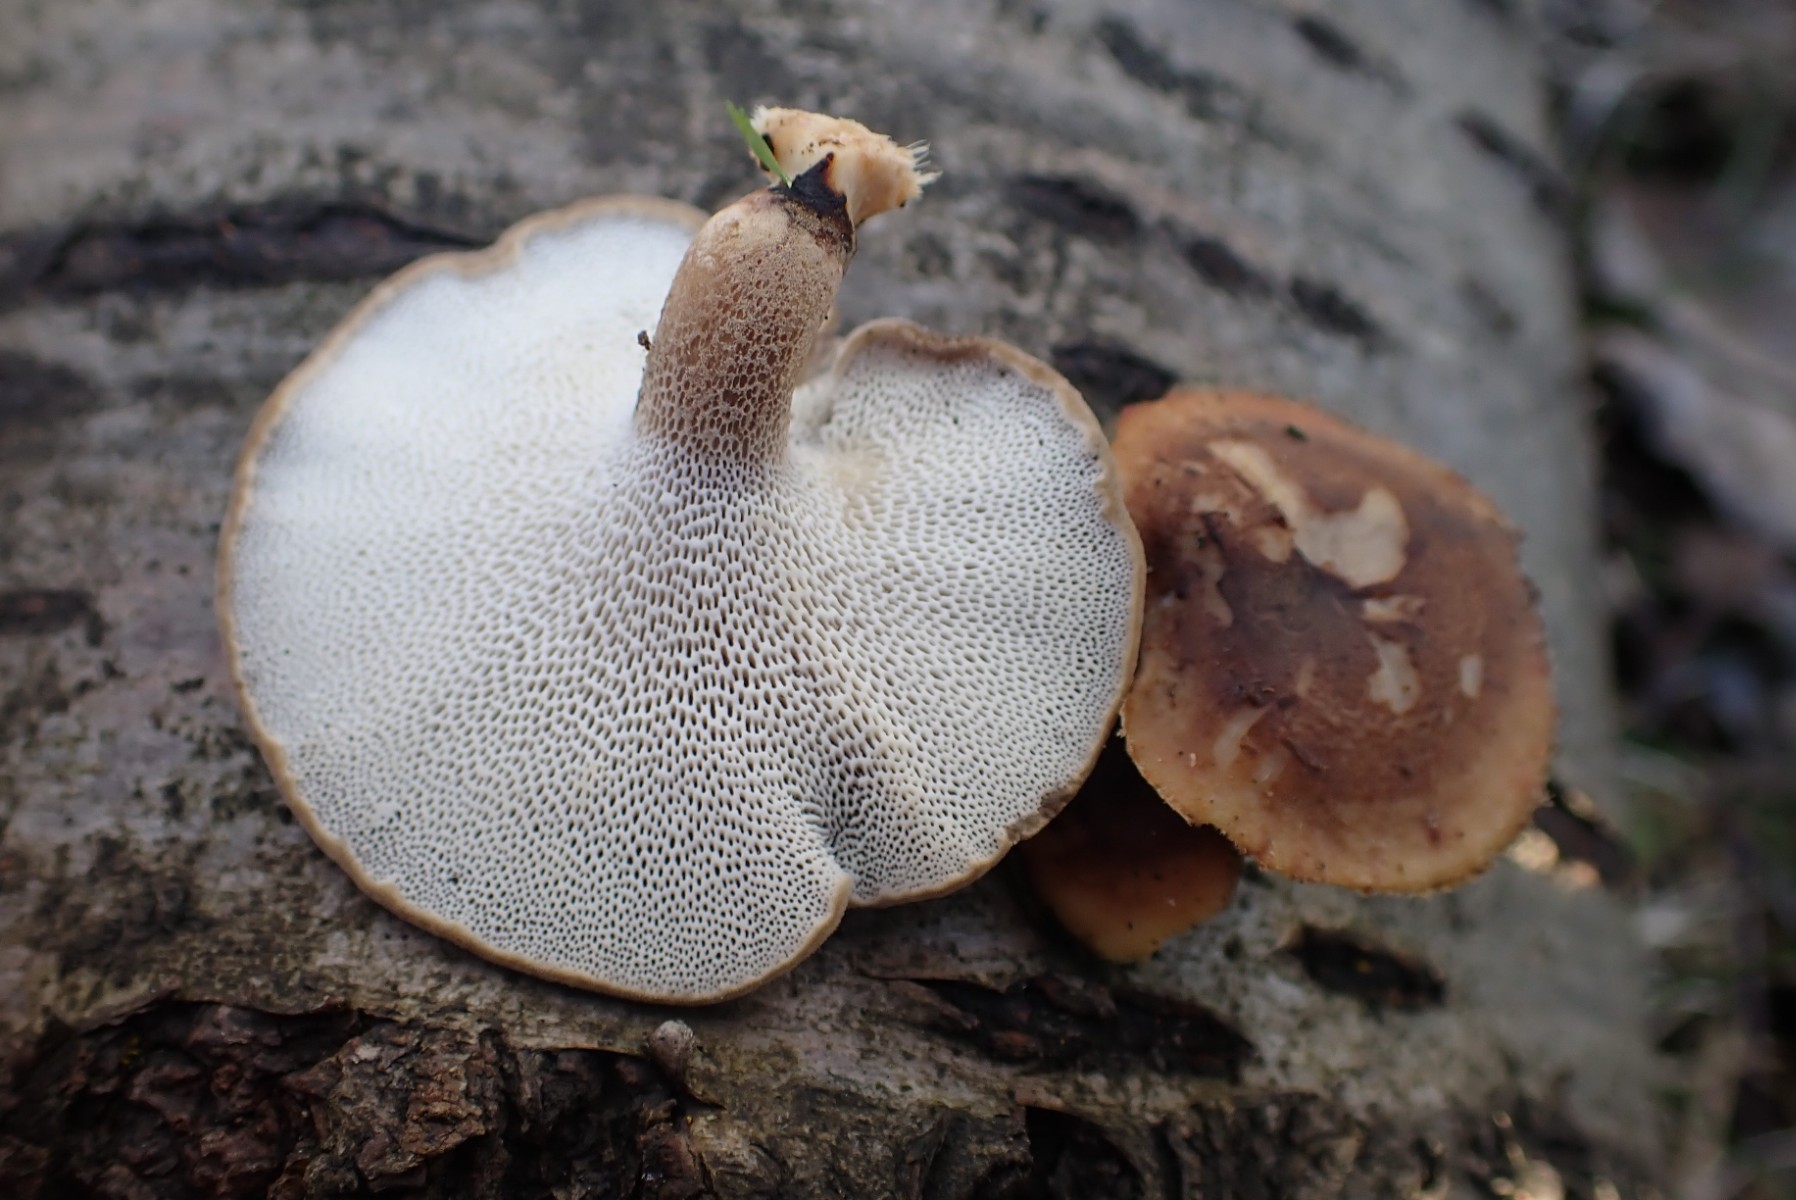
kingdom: Fungi
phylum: Basidiomycota
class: Agaricomycetes
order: Polyporales
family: Polyporaceae
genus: Lentinus
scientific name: Lentinus brumalis
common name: vinter-stilkporesvamp
